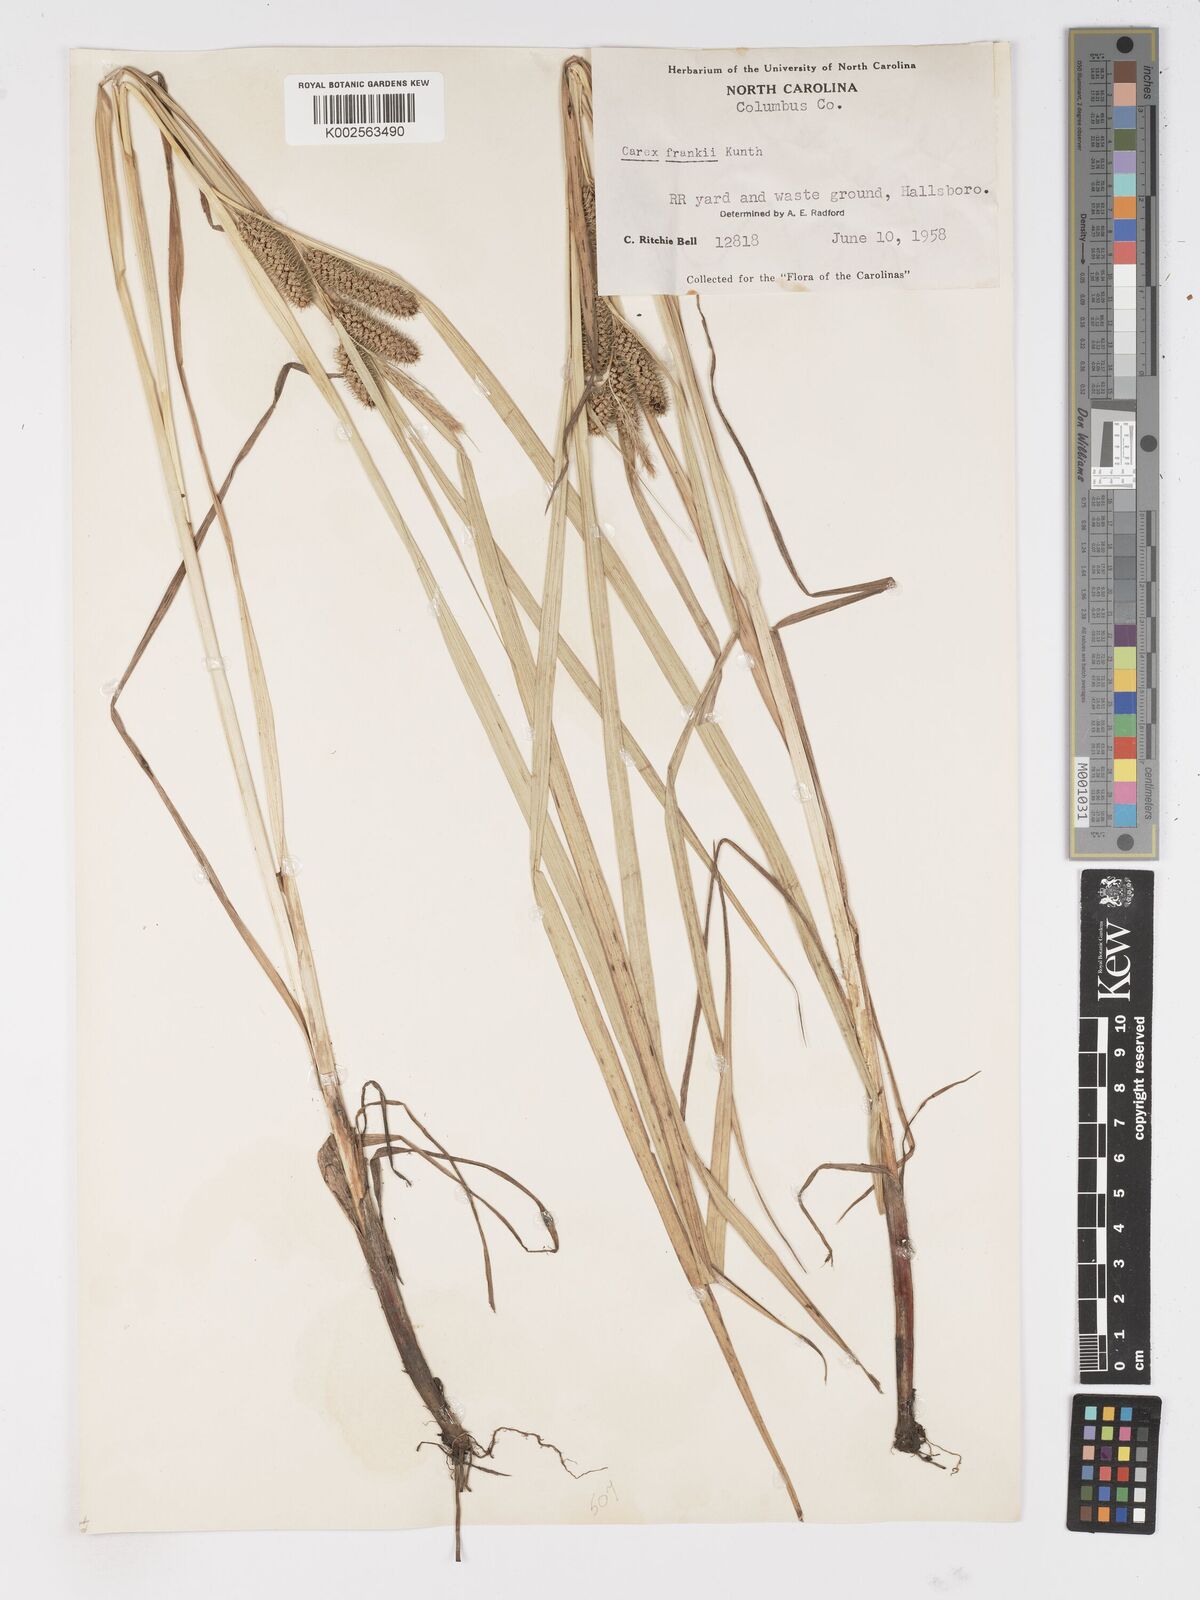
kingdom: Plantae
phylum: Tracheophyta
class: Liliopsida
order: Poales
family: Cyperaceae
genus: Carex
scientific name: Carex frankii
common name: Frank's sedge
